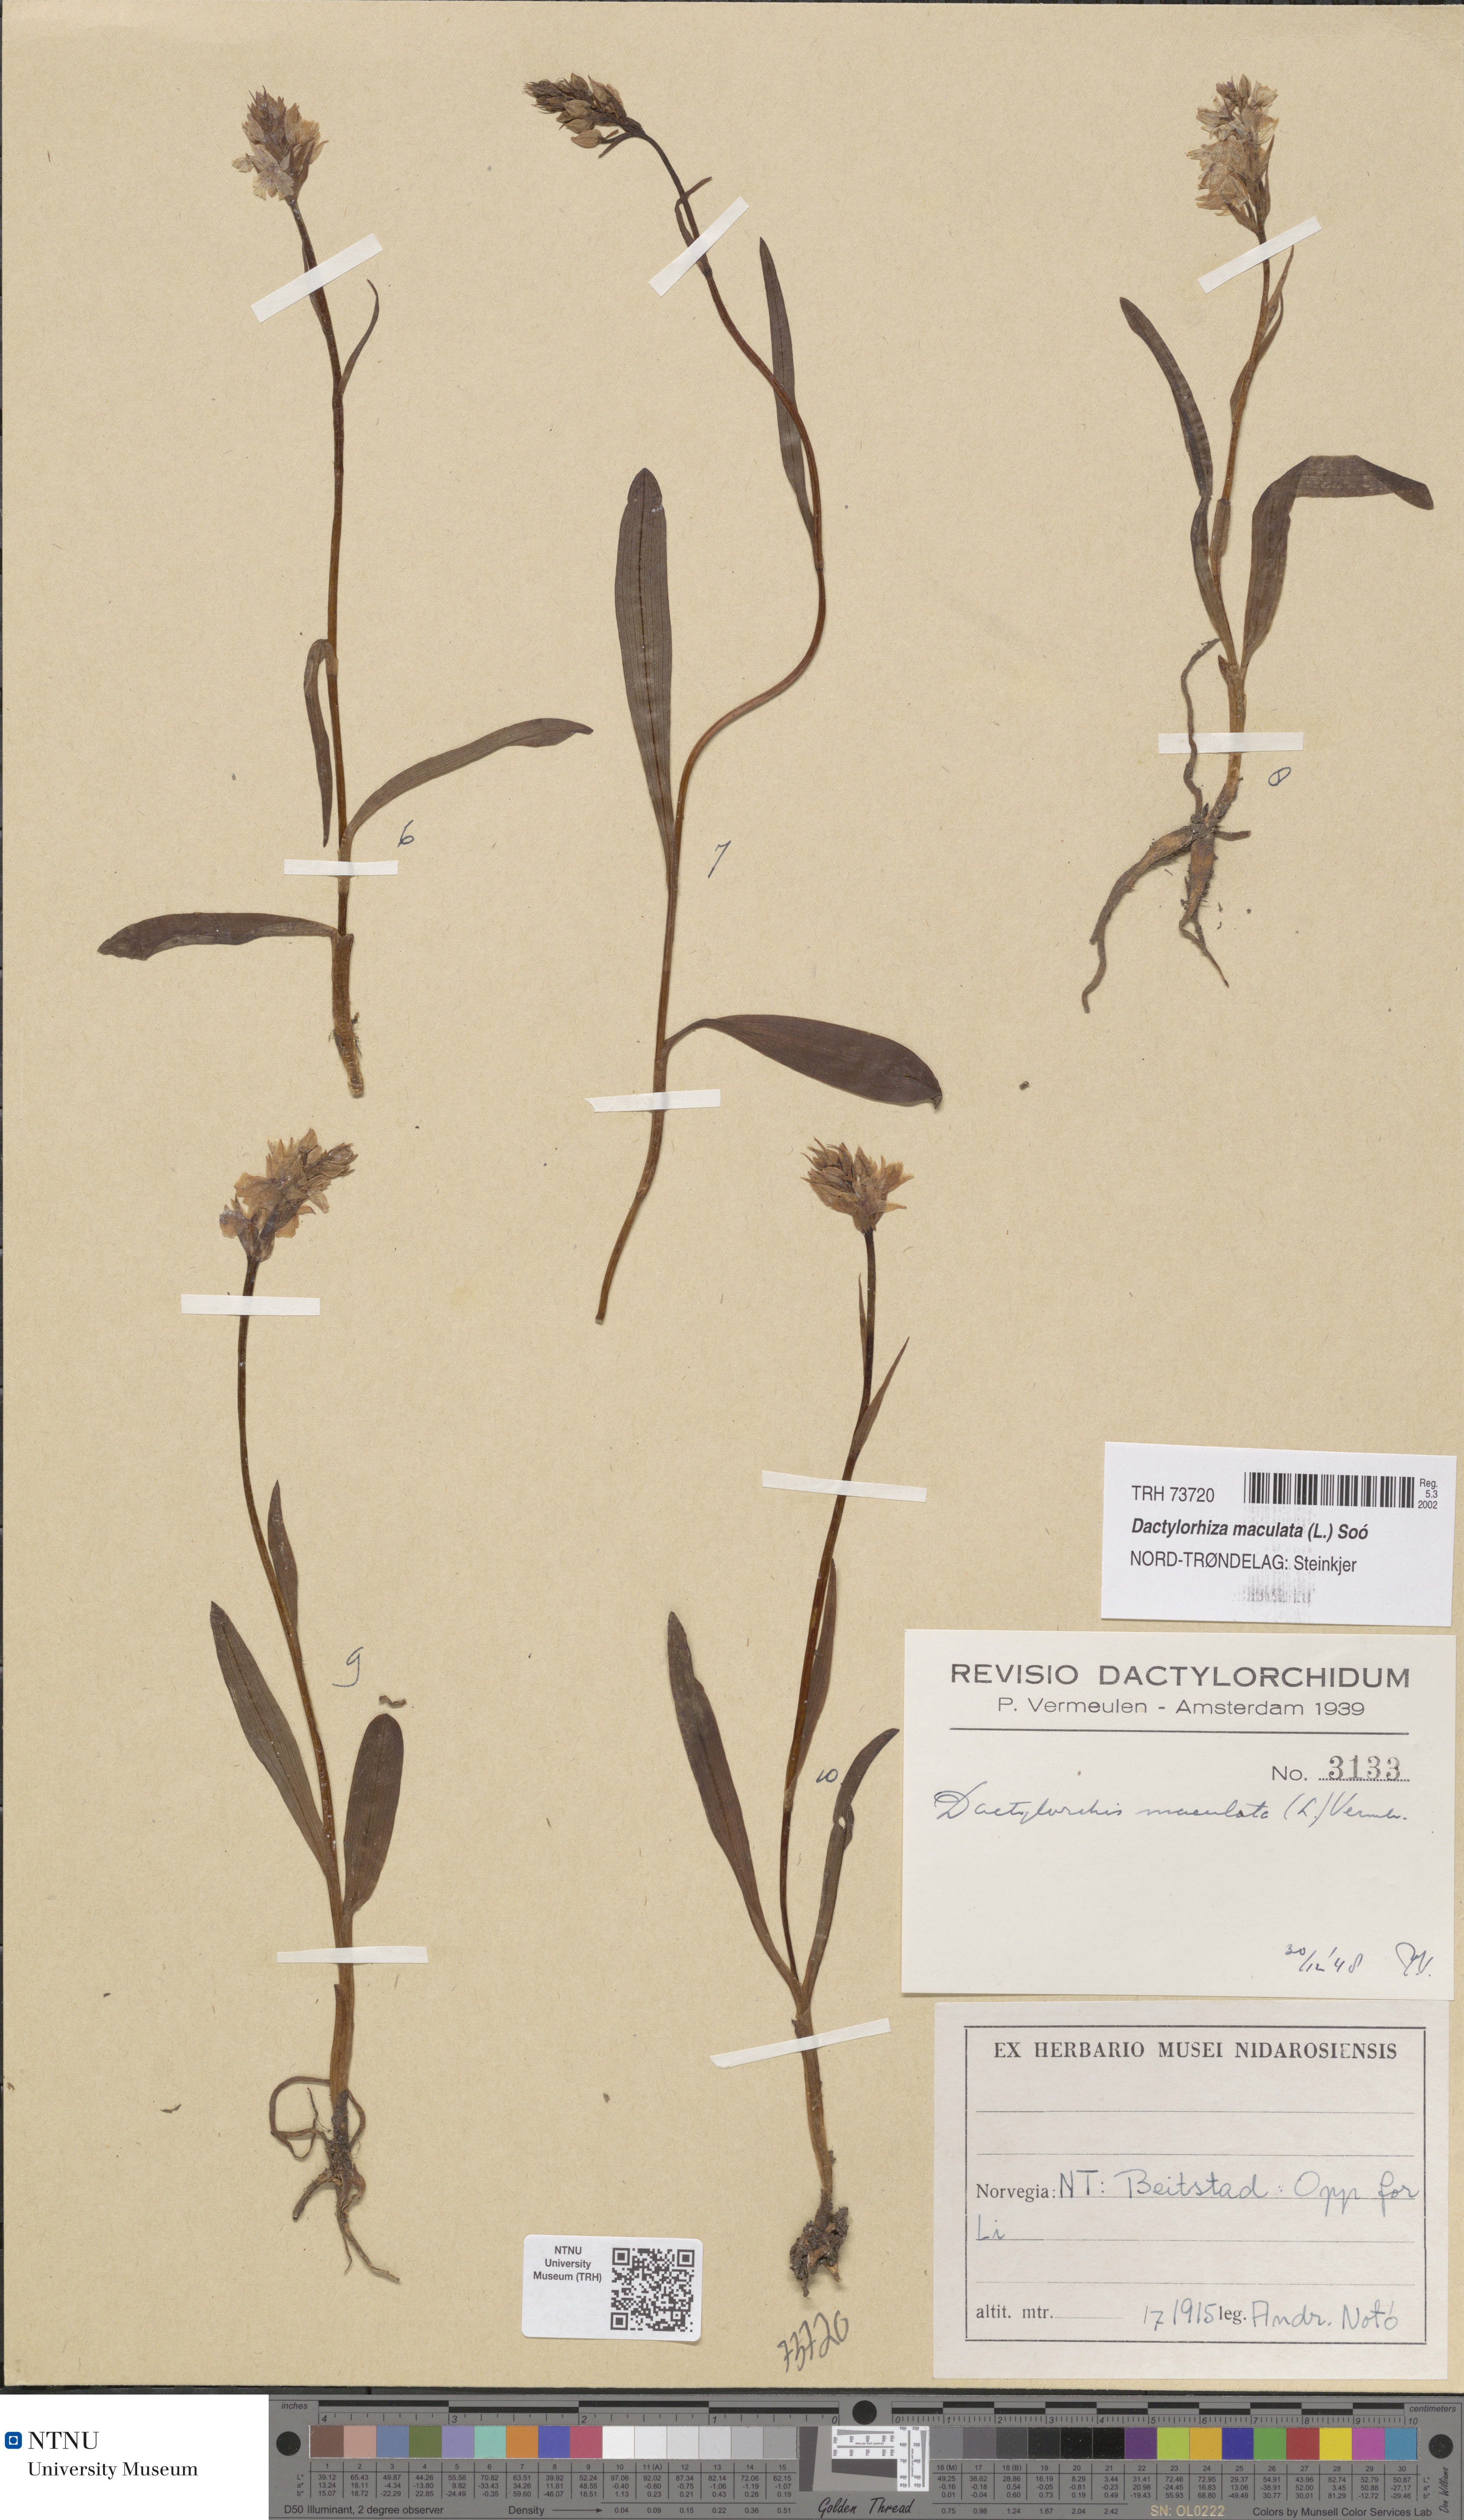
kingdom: Plantae
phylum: Tracheophyta
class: Liliopsida
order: Asparagales
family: Orchidaceae
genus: Dactylorhiza
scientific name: Dactylorhiza maculata
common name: Heath spotted-orchid
